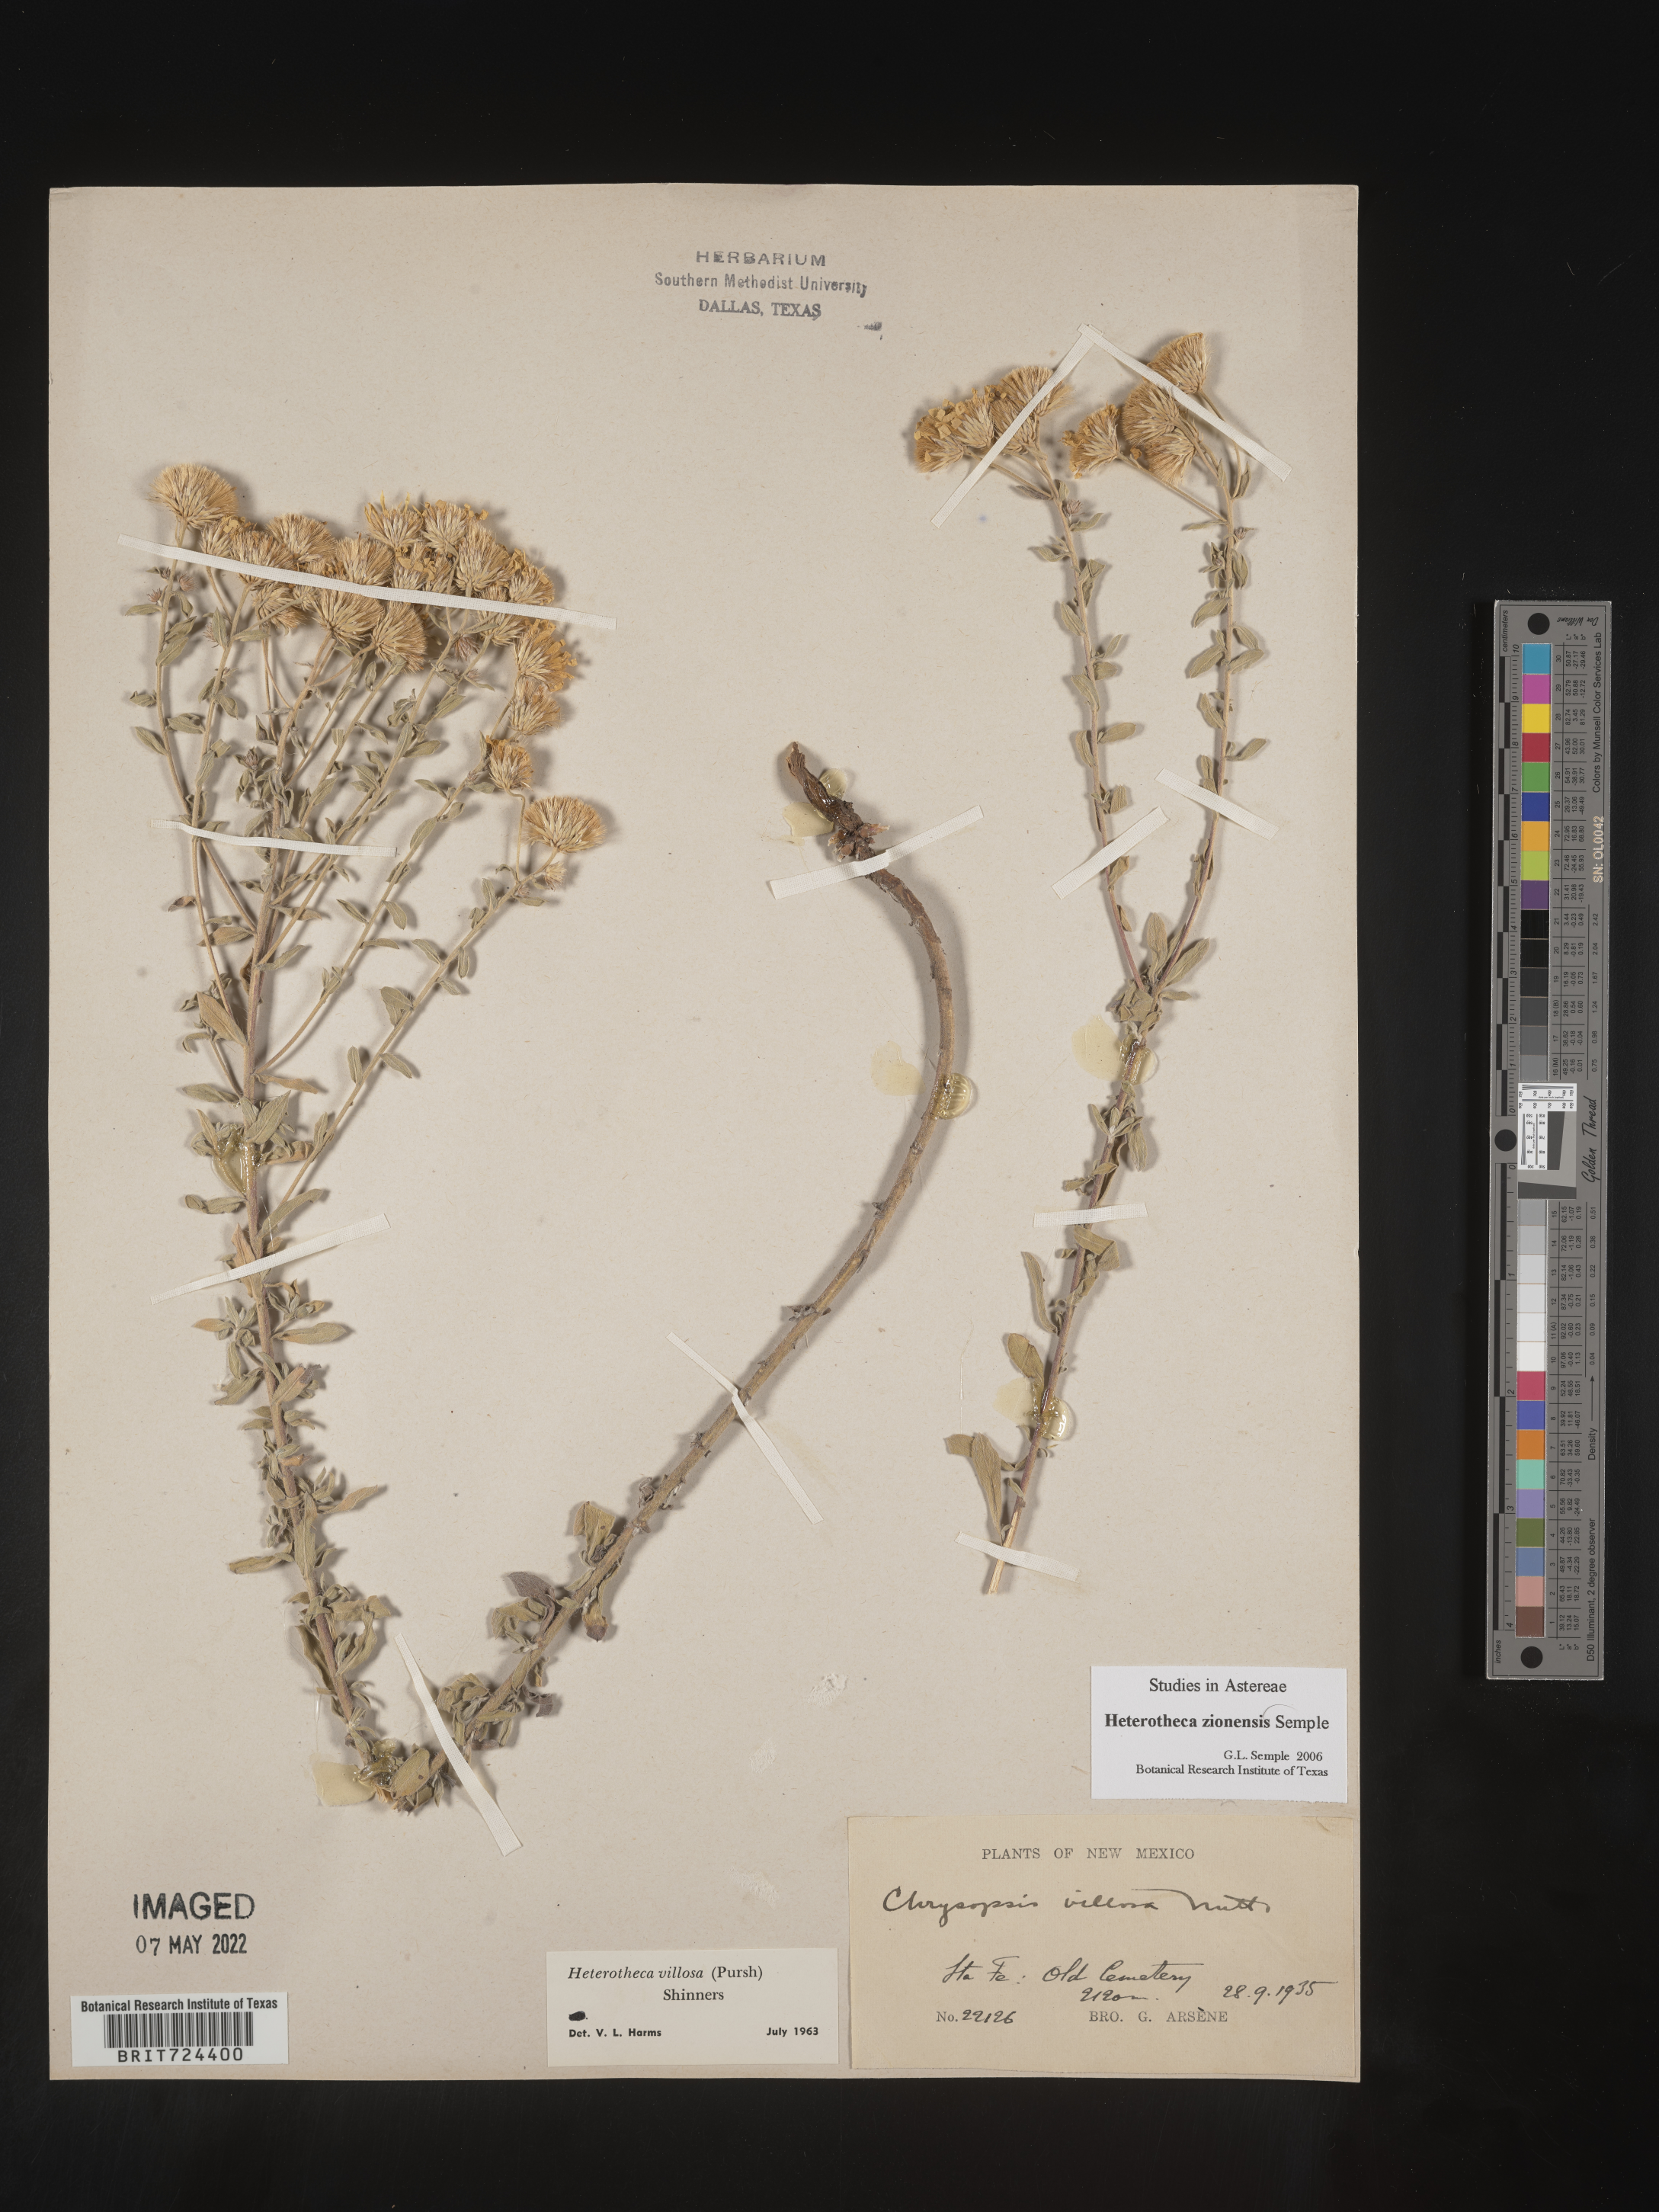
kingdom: Plantae
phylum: Tracheophyta
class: Magnoliopsida
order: Asterales
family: Asteraceae
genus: Heterotheca
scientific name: Heterotheca zionensis
